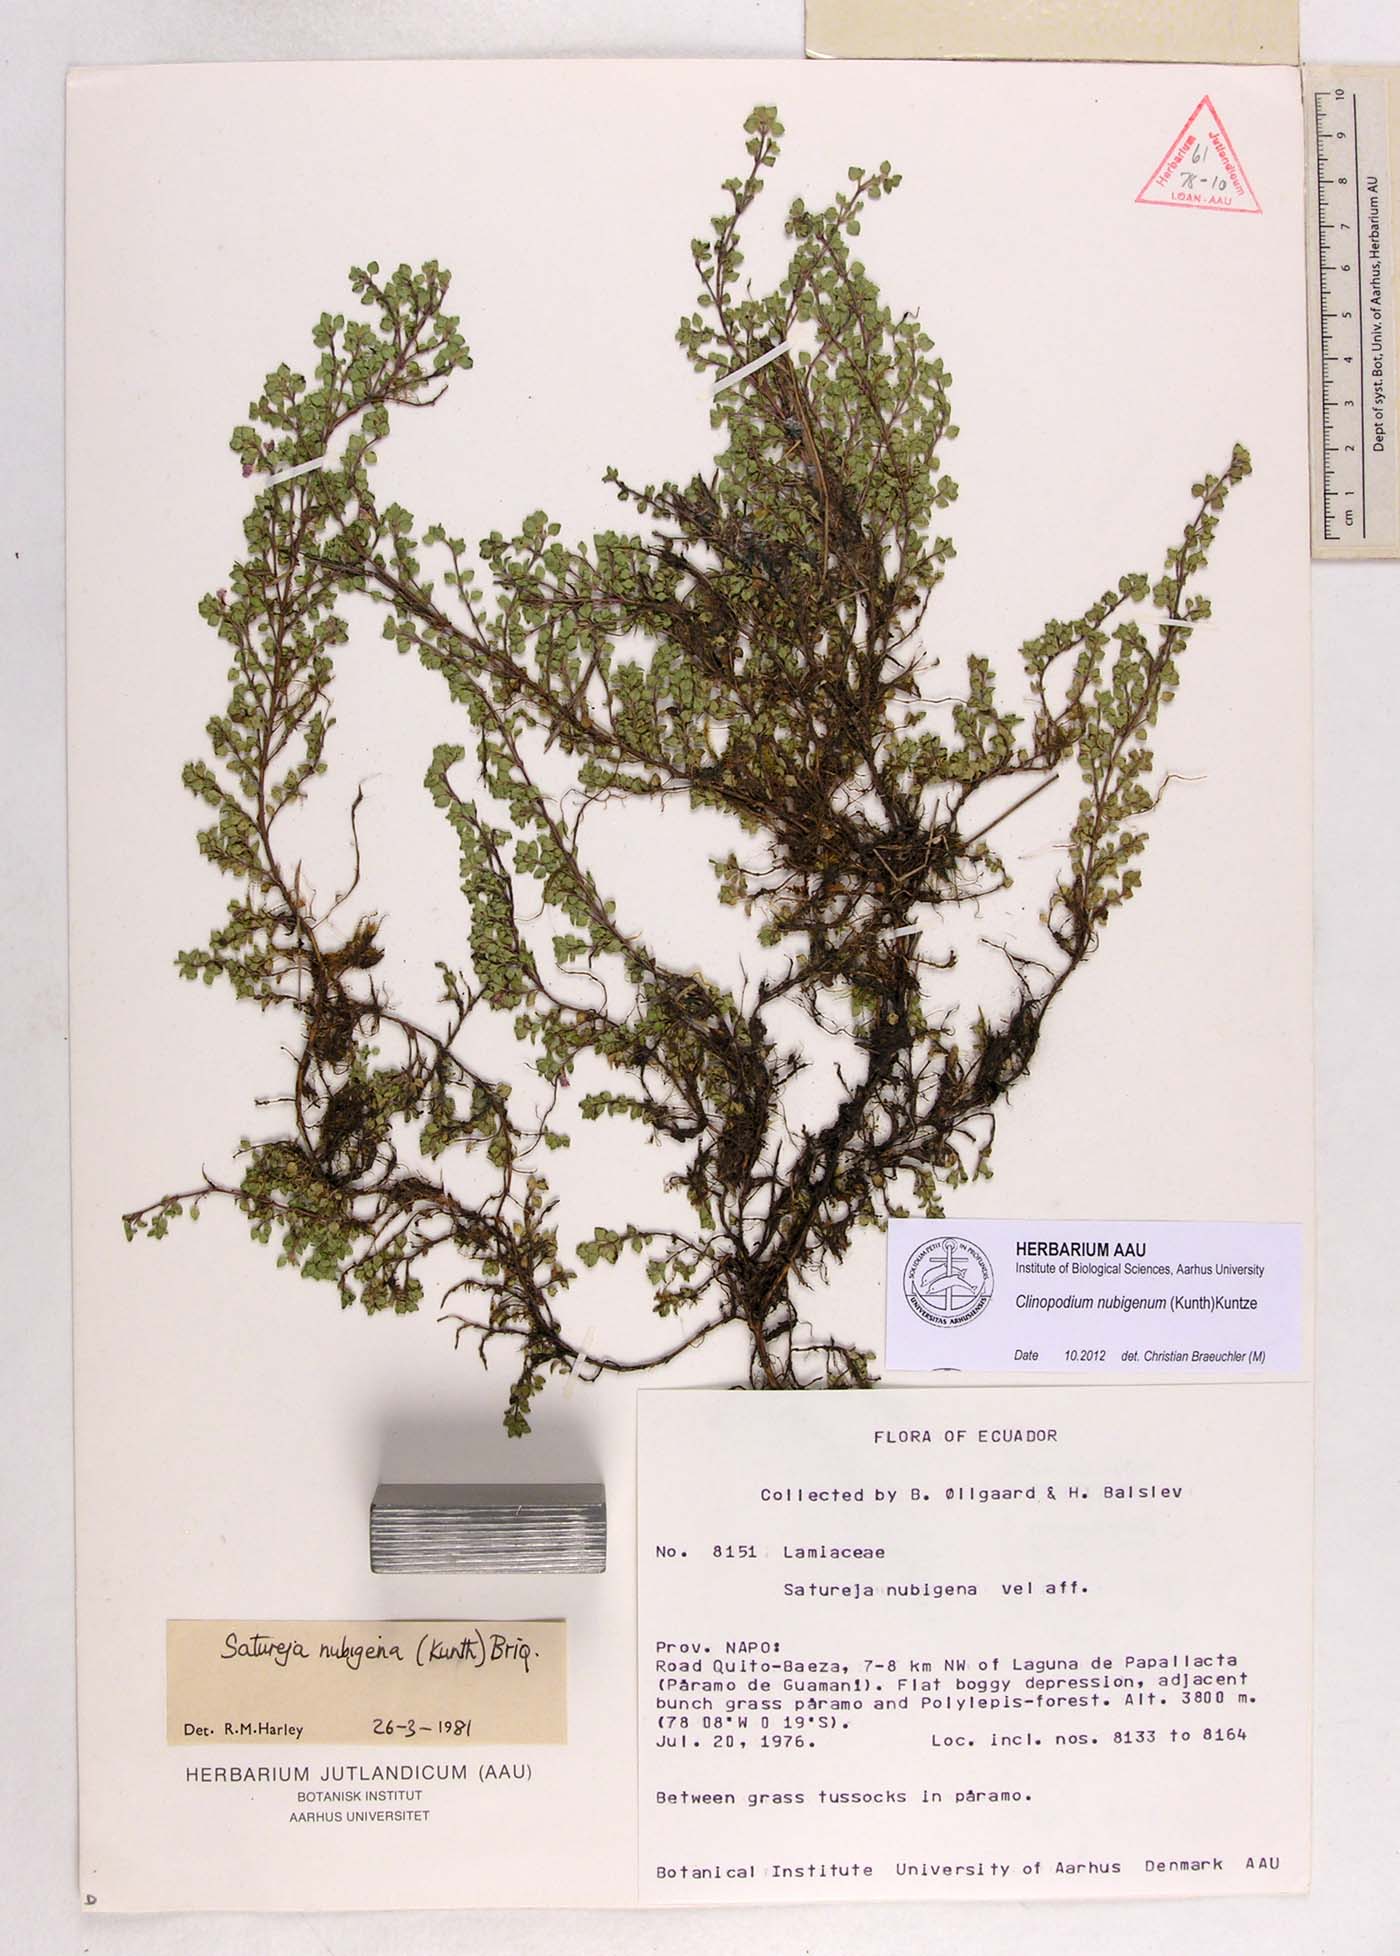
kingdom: Plantae
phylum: Tracheophyta
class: Magnoliopsida
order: Lamiales
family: Lamiaceae
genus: Clinopodium
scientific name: Clinopodium nubigenum
